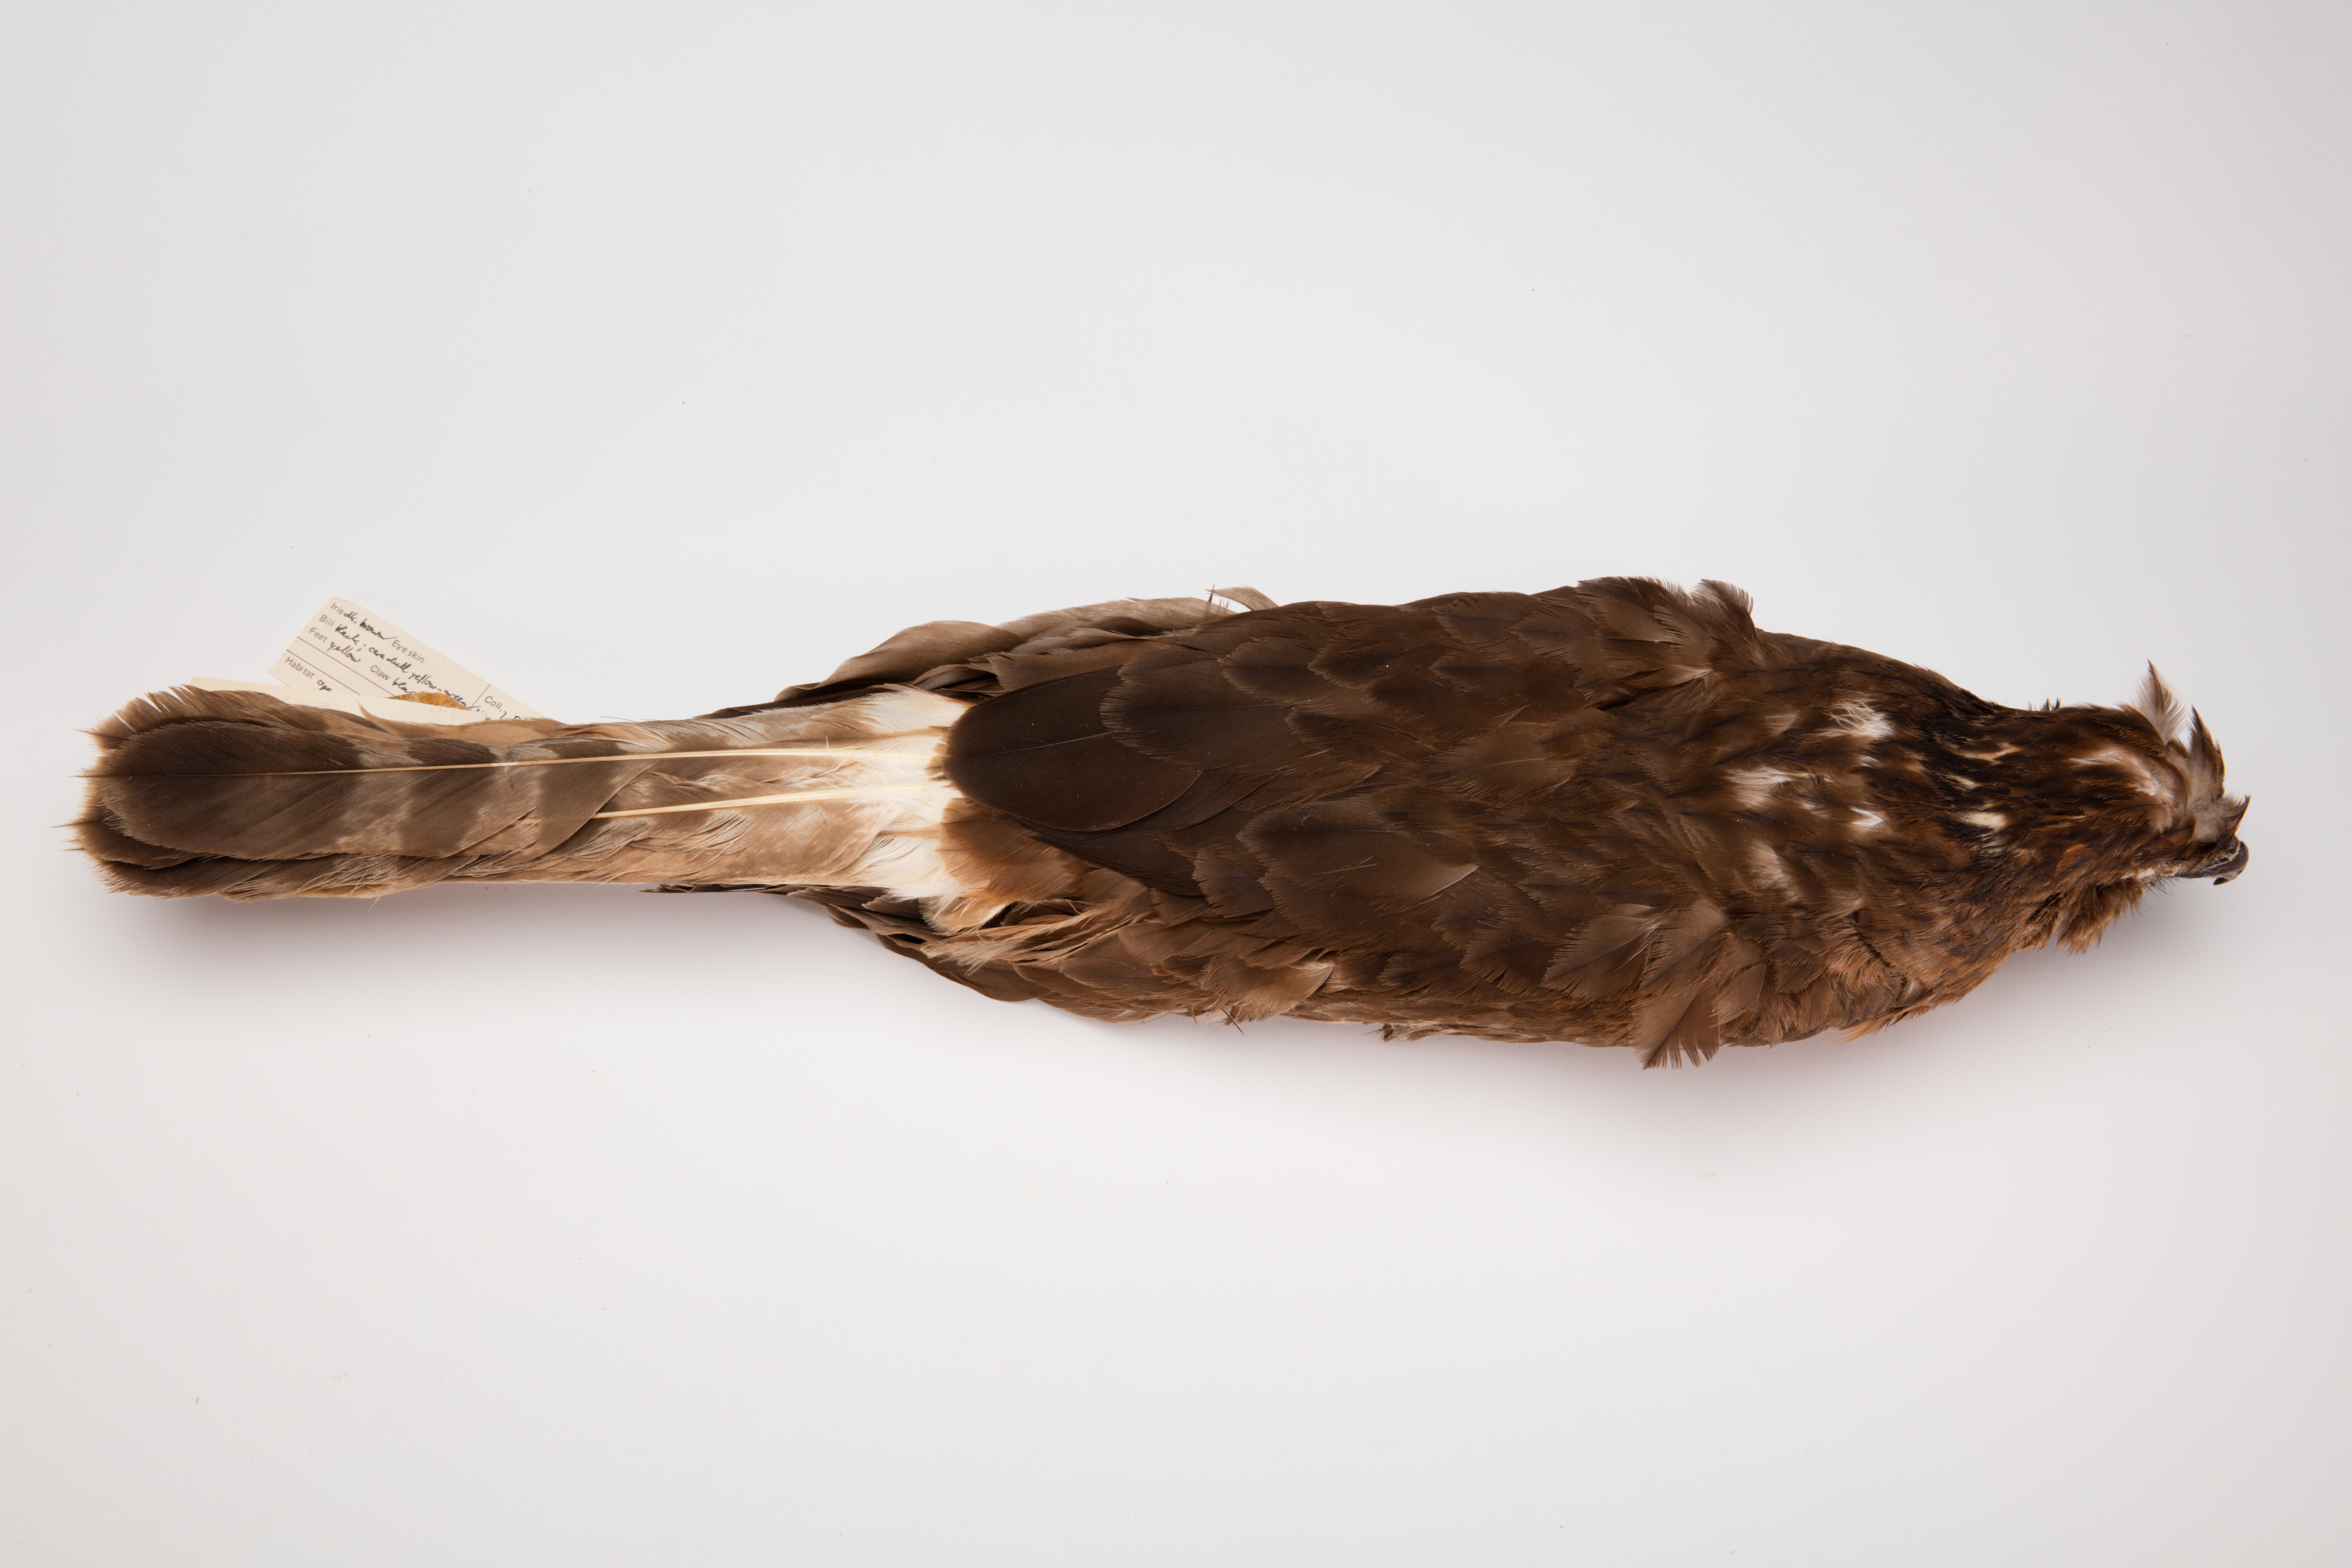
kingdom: Animalia
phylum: Chordata
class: Aves
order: Accipitriformes
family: Accipitridae
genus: Circus
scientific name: Circus approximans
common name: Swamp harrier
